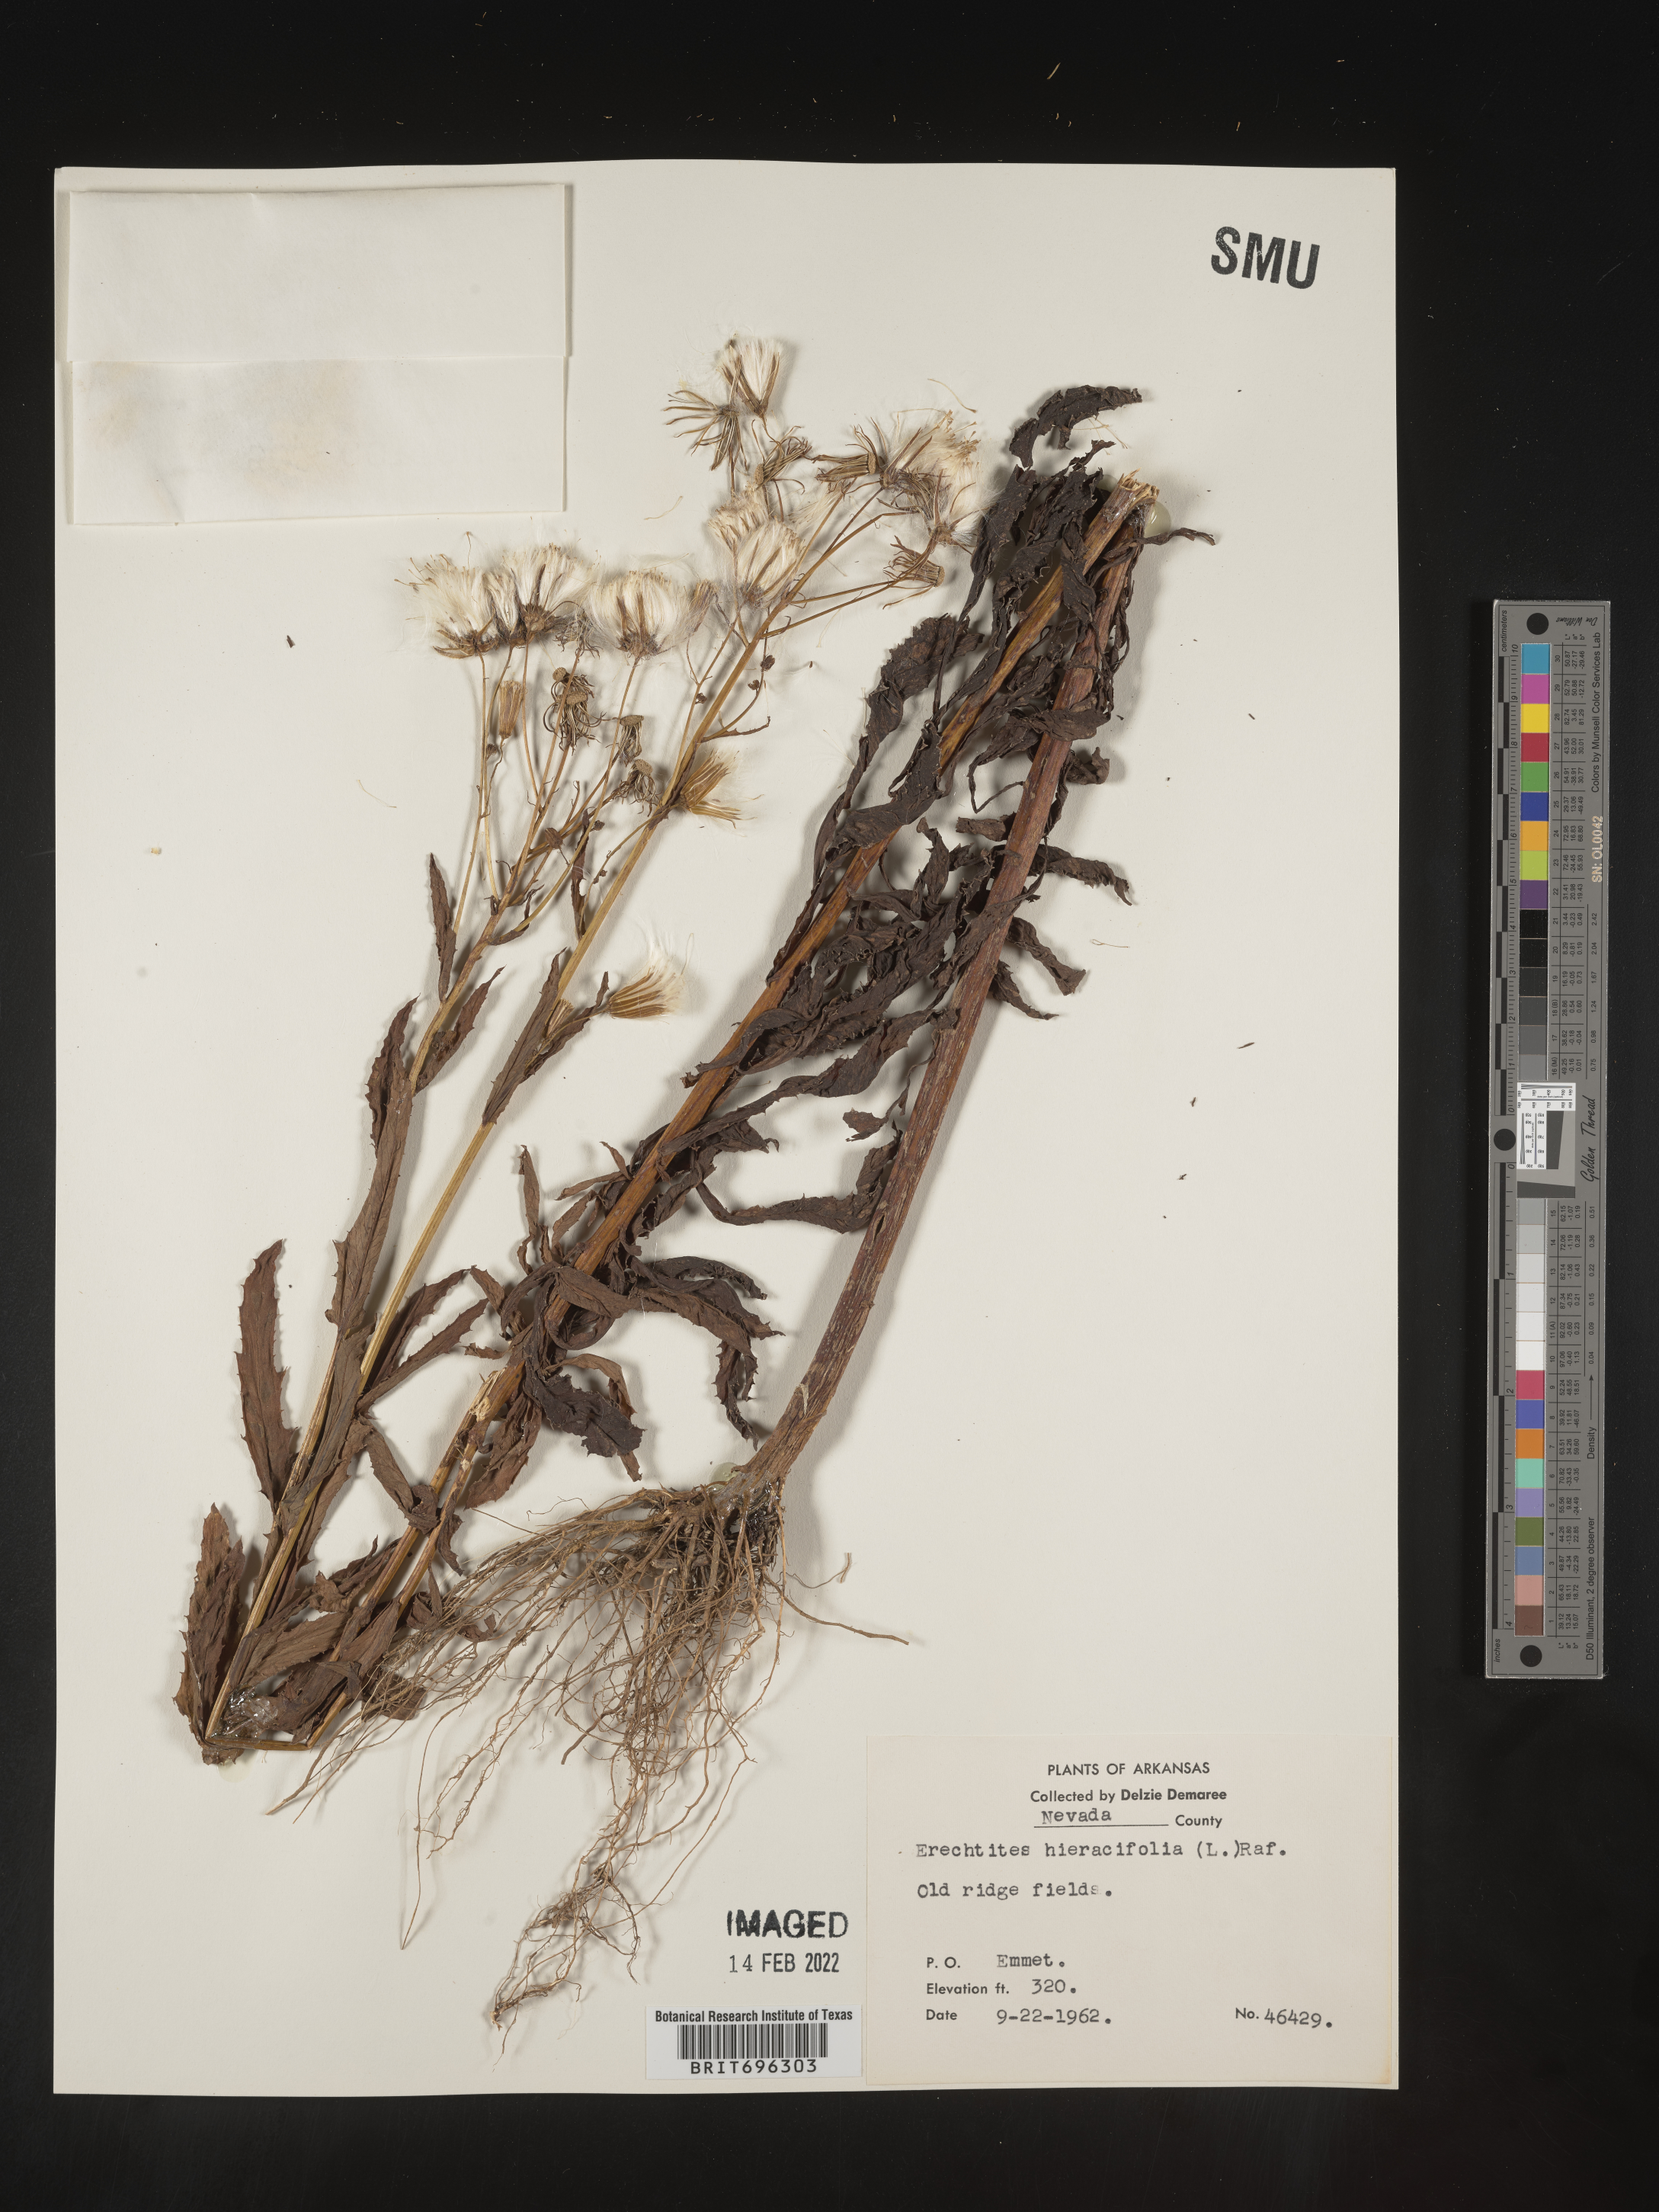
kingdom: Plantae
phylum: Tracheophyta
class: Magnoliopsida
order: Asterales
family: Asteraceae
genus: Erechtites
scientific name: Erechtites hieraciifolius
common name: American burnweed
